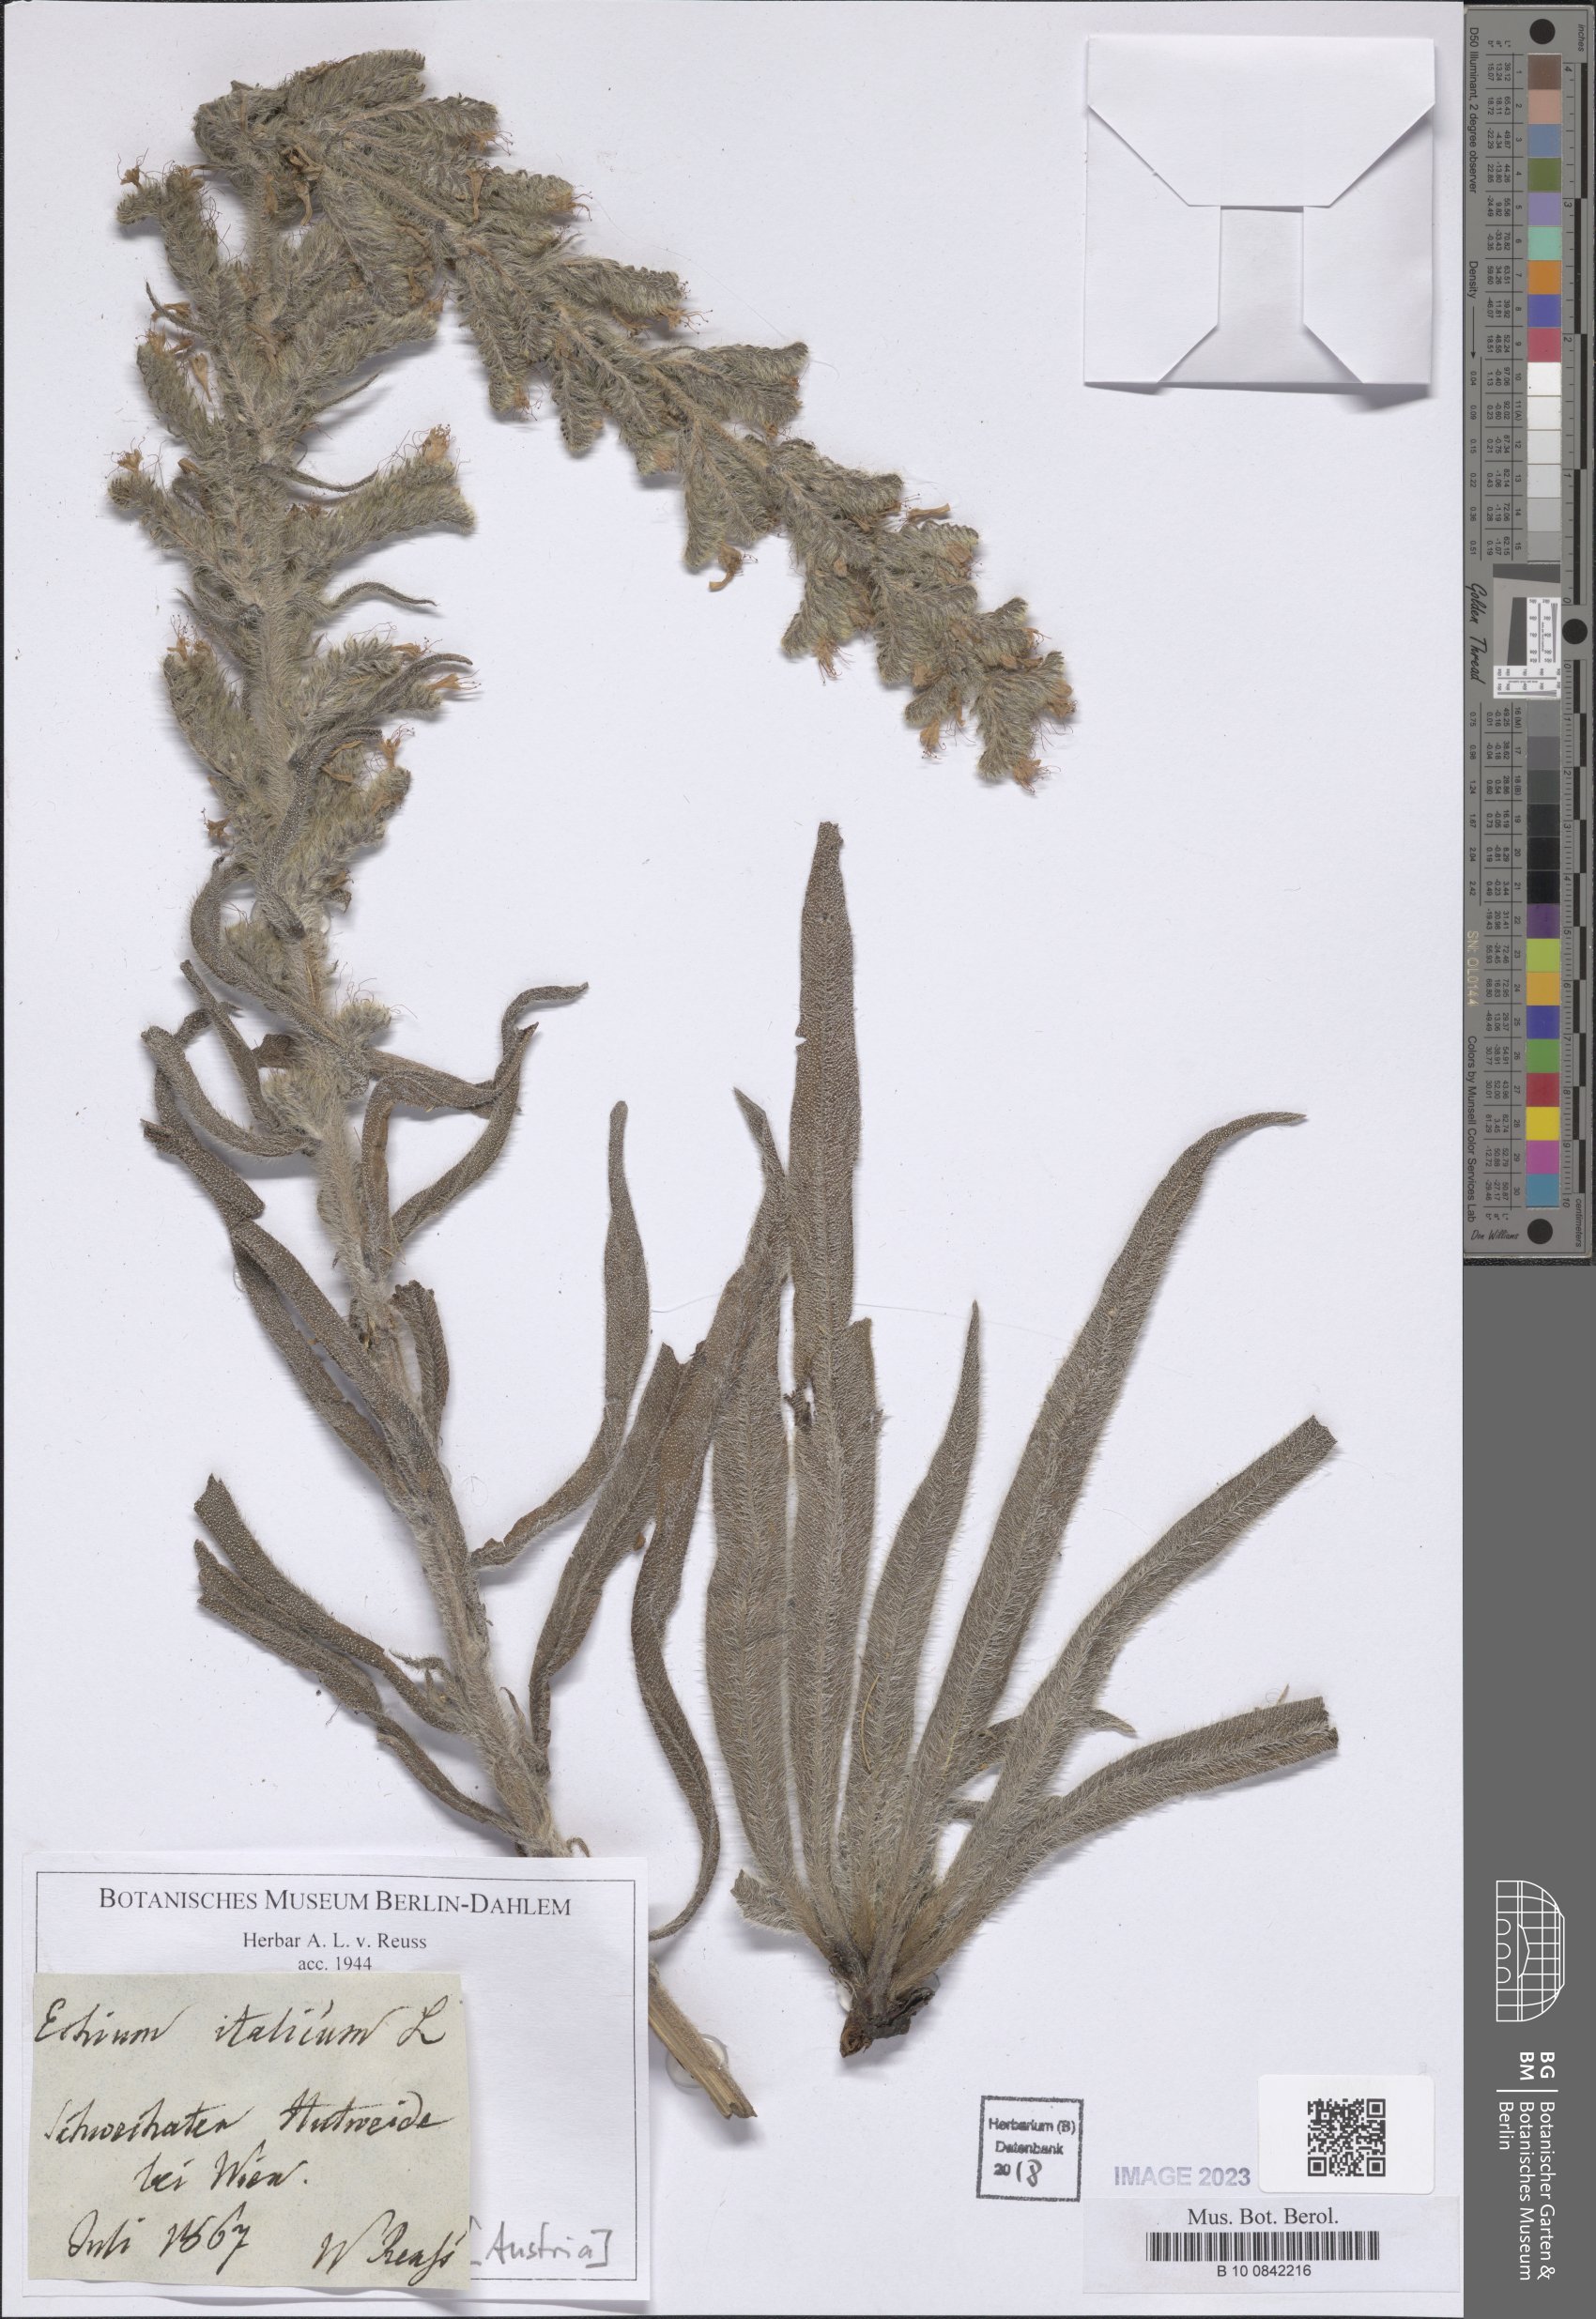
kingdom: Plantae
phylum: Tracheophyta
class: Magnoliopsida
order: Boraginales
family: Boraginaceae
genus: Echium
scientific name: Echium italicum
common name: Italian viper's bugloss
